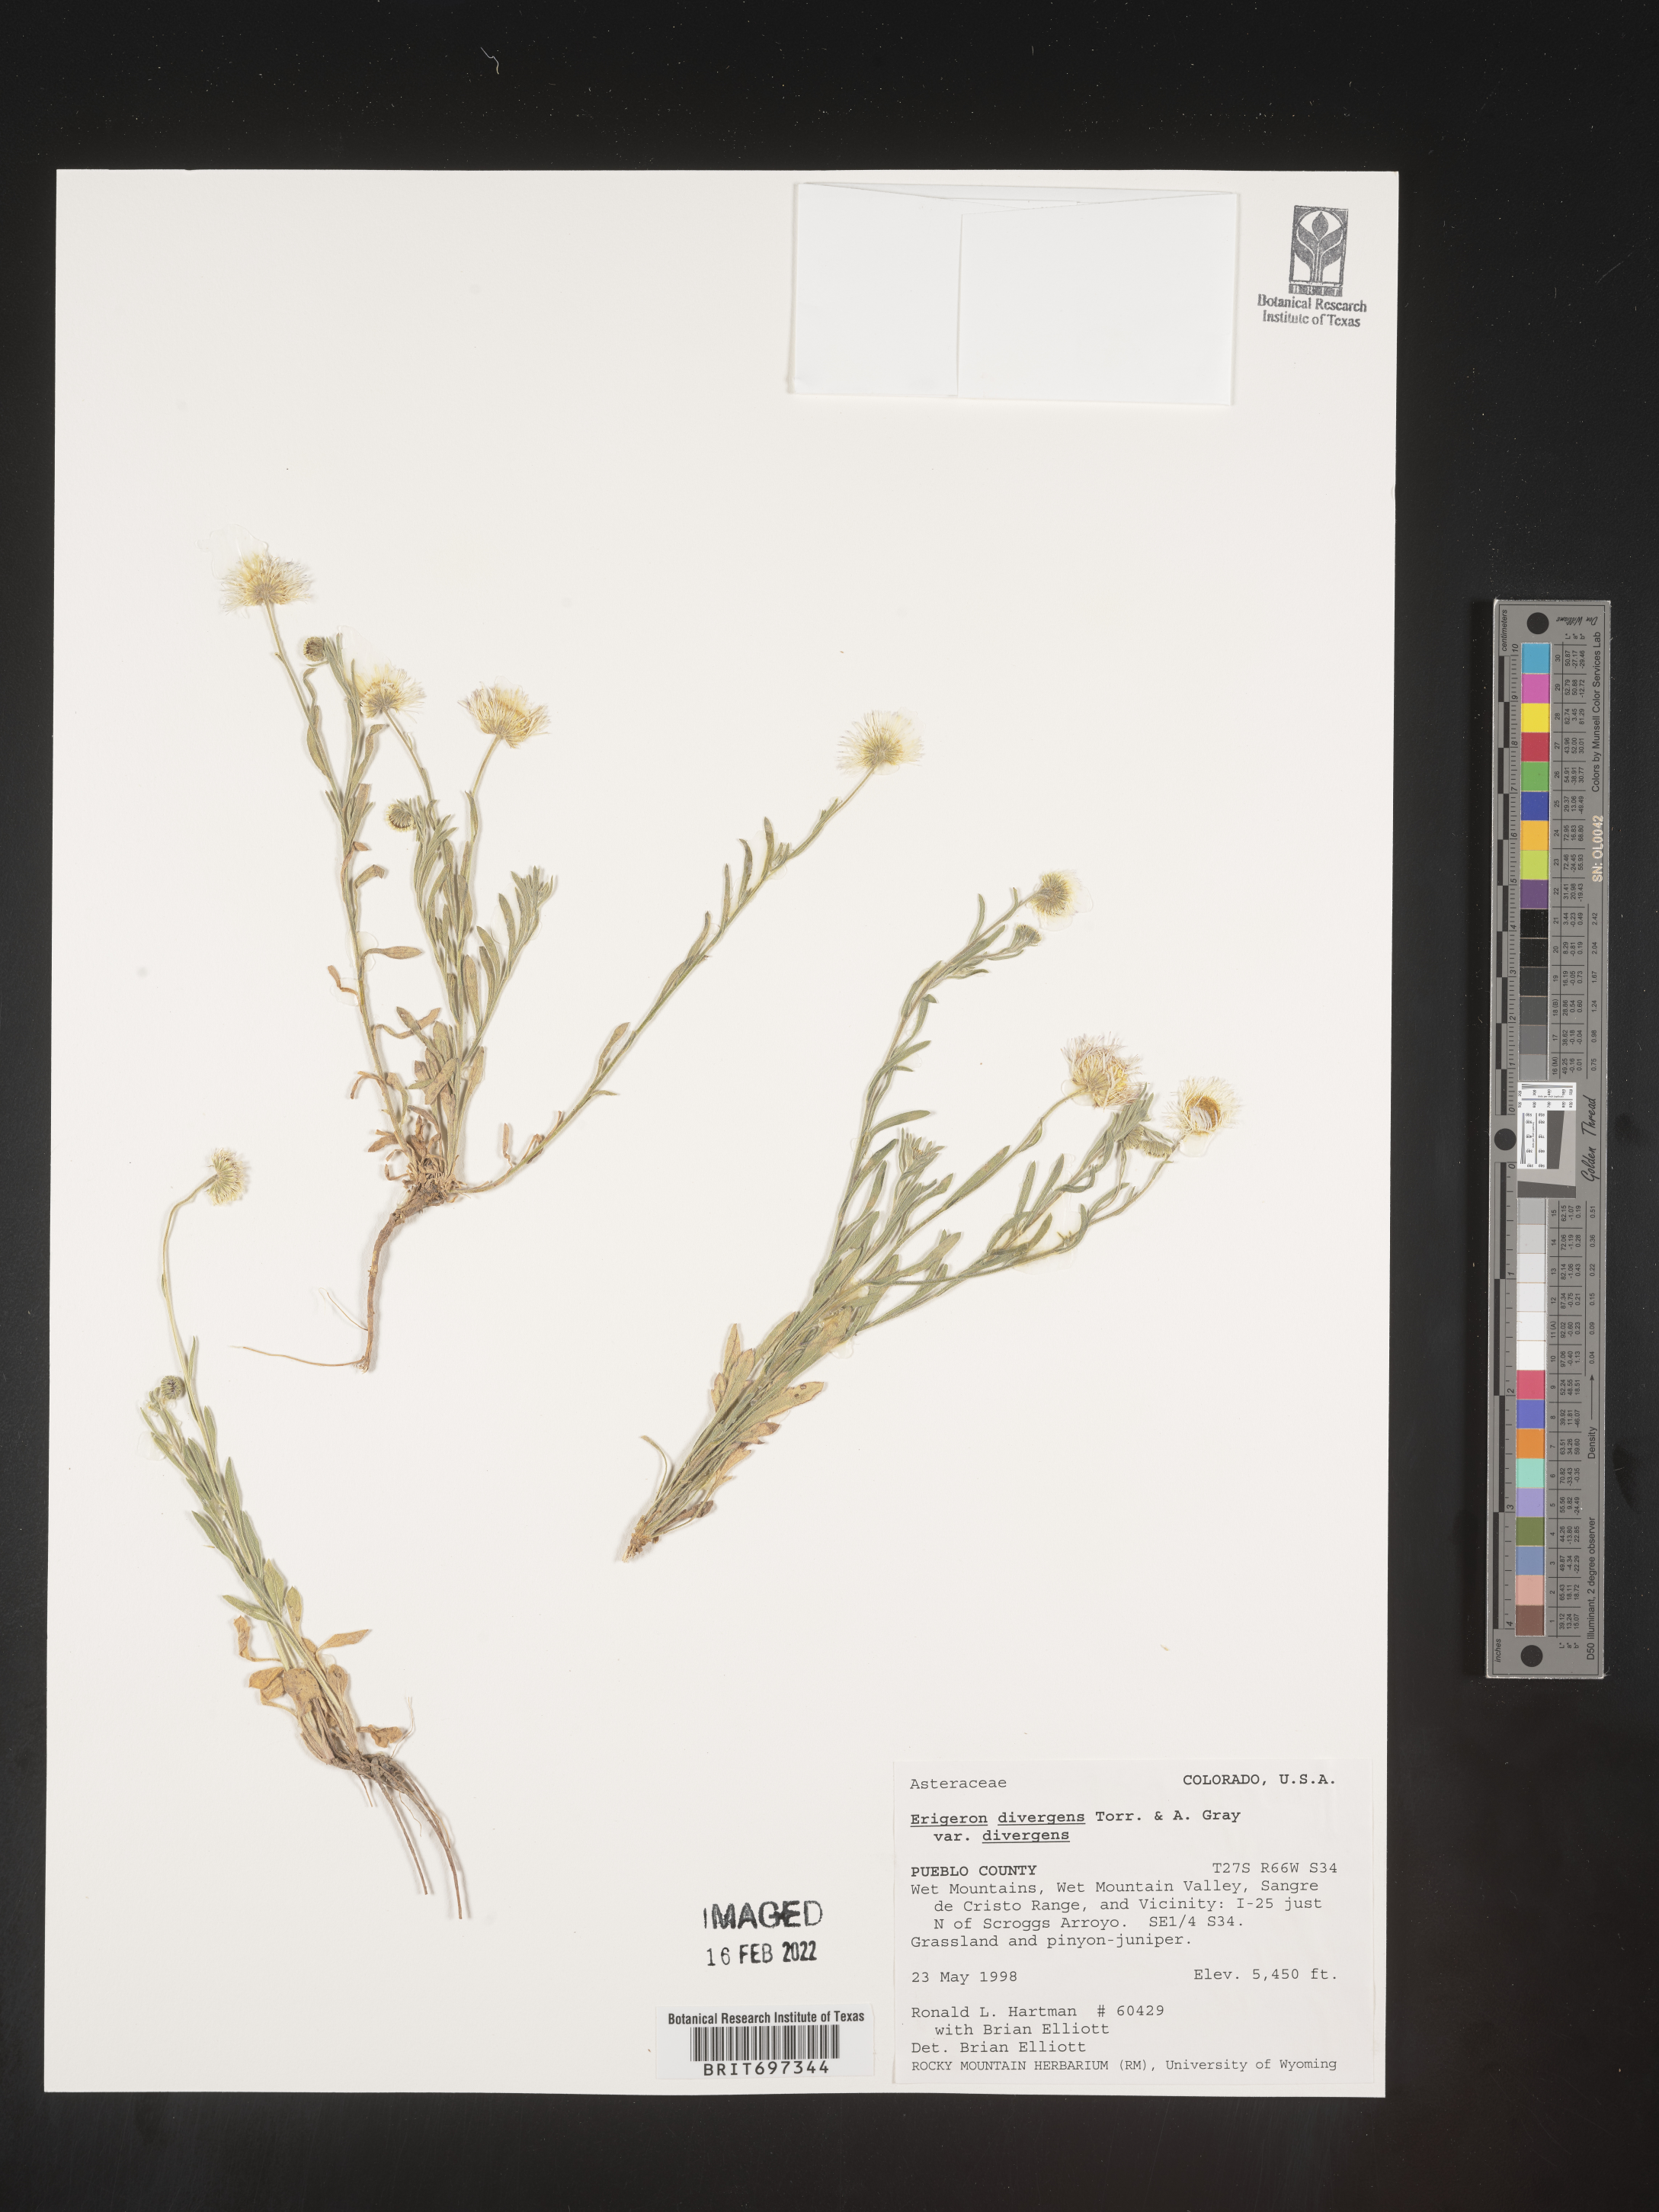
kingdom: Plantae
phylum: Tracheophyta
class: Magnoliopsida
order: Asterales
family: Asteraceae
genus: Erigeron
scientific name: Erigeron divergens
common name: Diffuse fleabane
